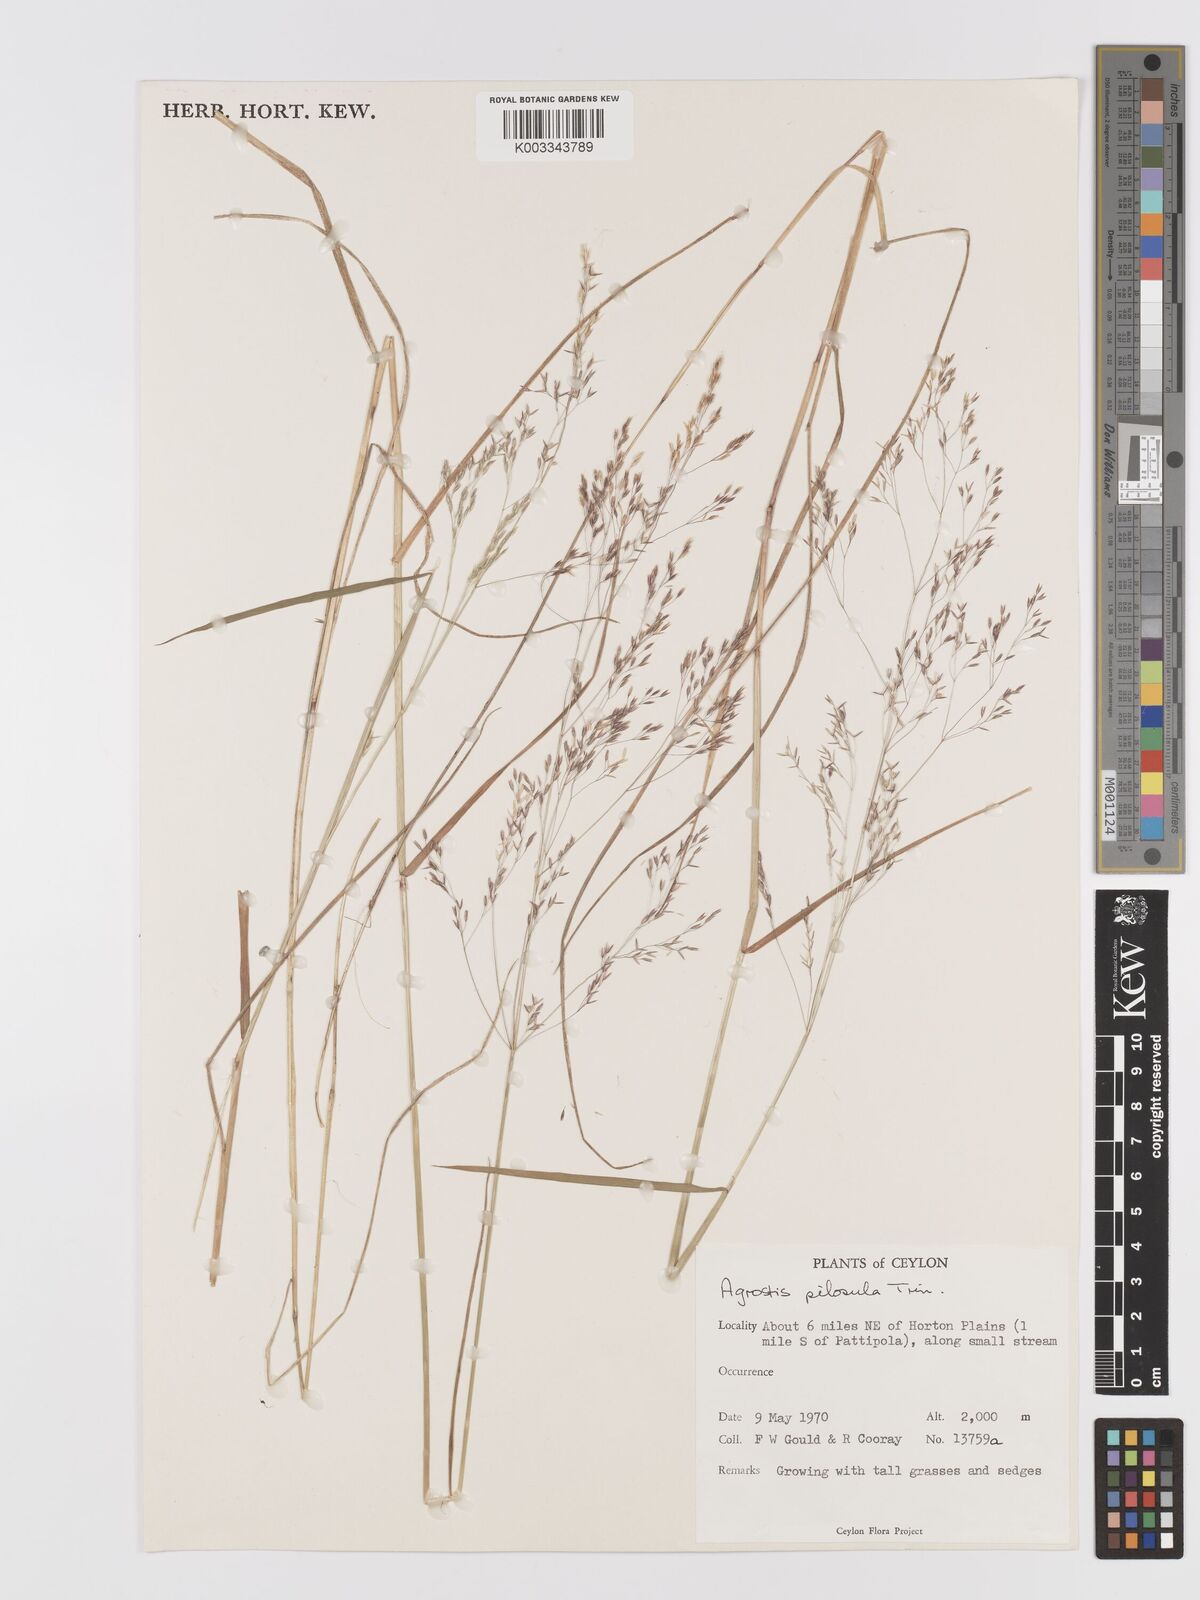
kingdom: Plantae
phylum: Tracheophyta
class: Liliopsida
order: Poales
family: Poaceae
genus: Agrostis
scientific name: Agrostis pilosula
